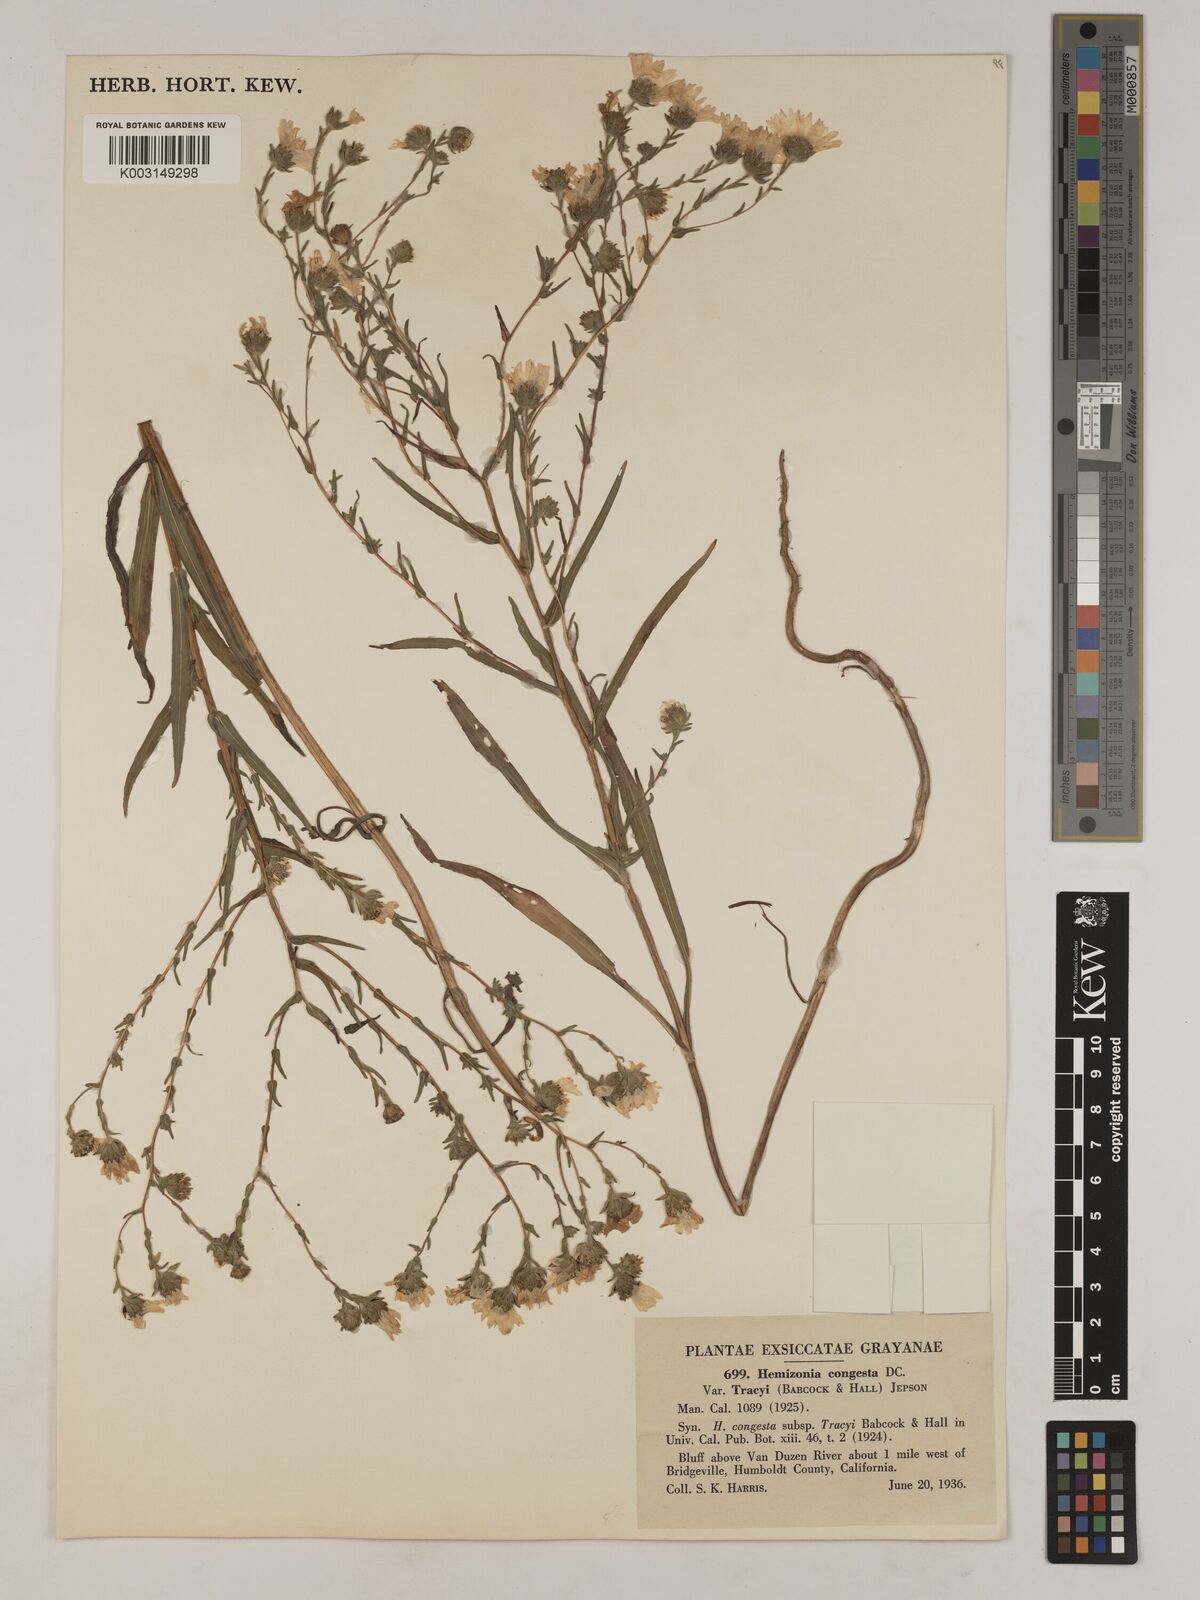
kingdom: Plantae
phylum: Tracheophyta
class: Magnoliopsida
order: Asterales
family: Asteraceae
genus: Hemizonia
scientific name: Hemizonia congesta
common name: Hayfield tarweed
